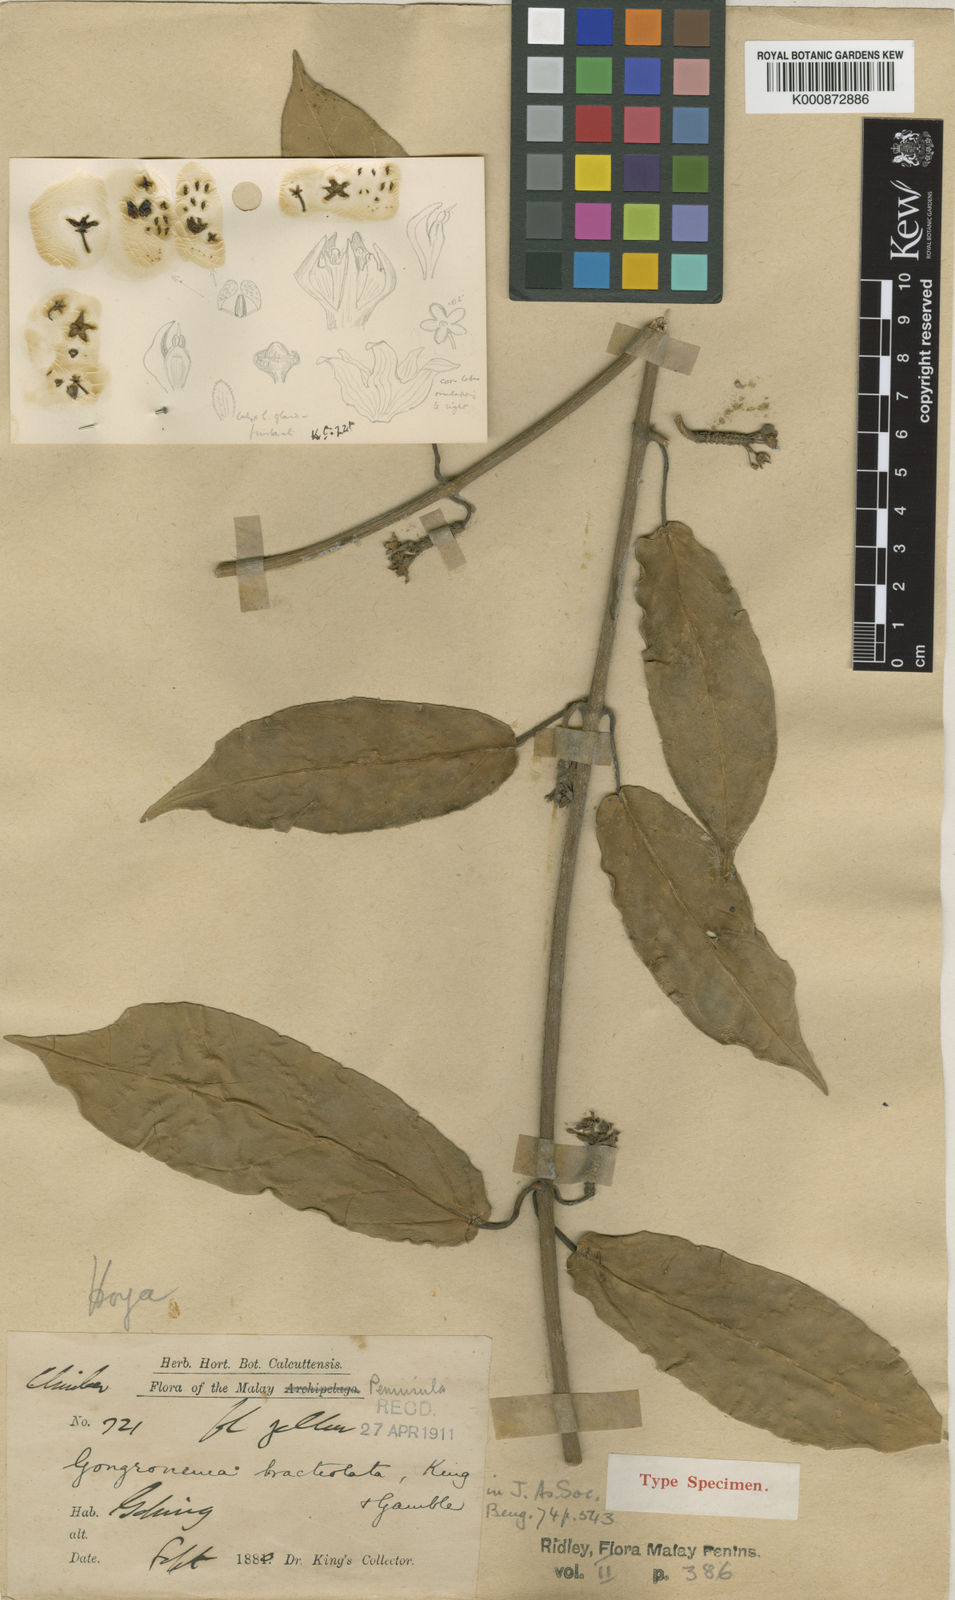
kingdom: Plantae
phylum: Tracheophyta
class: Magnoliopsida
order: Gentianales
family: Apocynaceae
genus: Gongronema
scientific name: Gongronema bracteolatum
